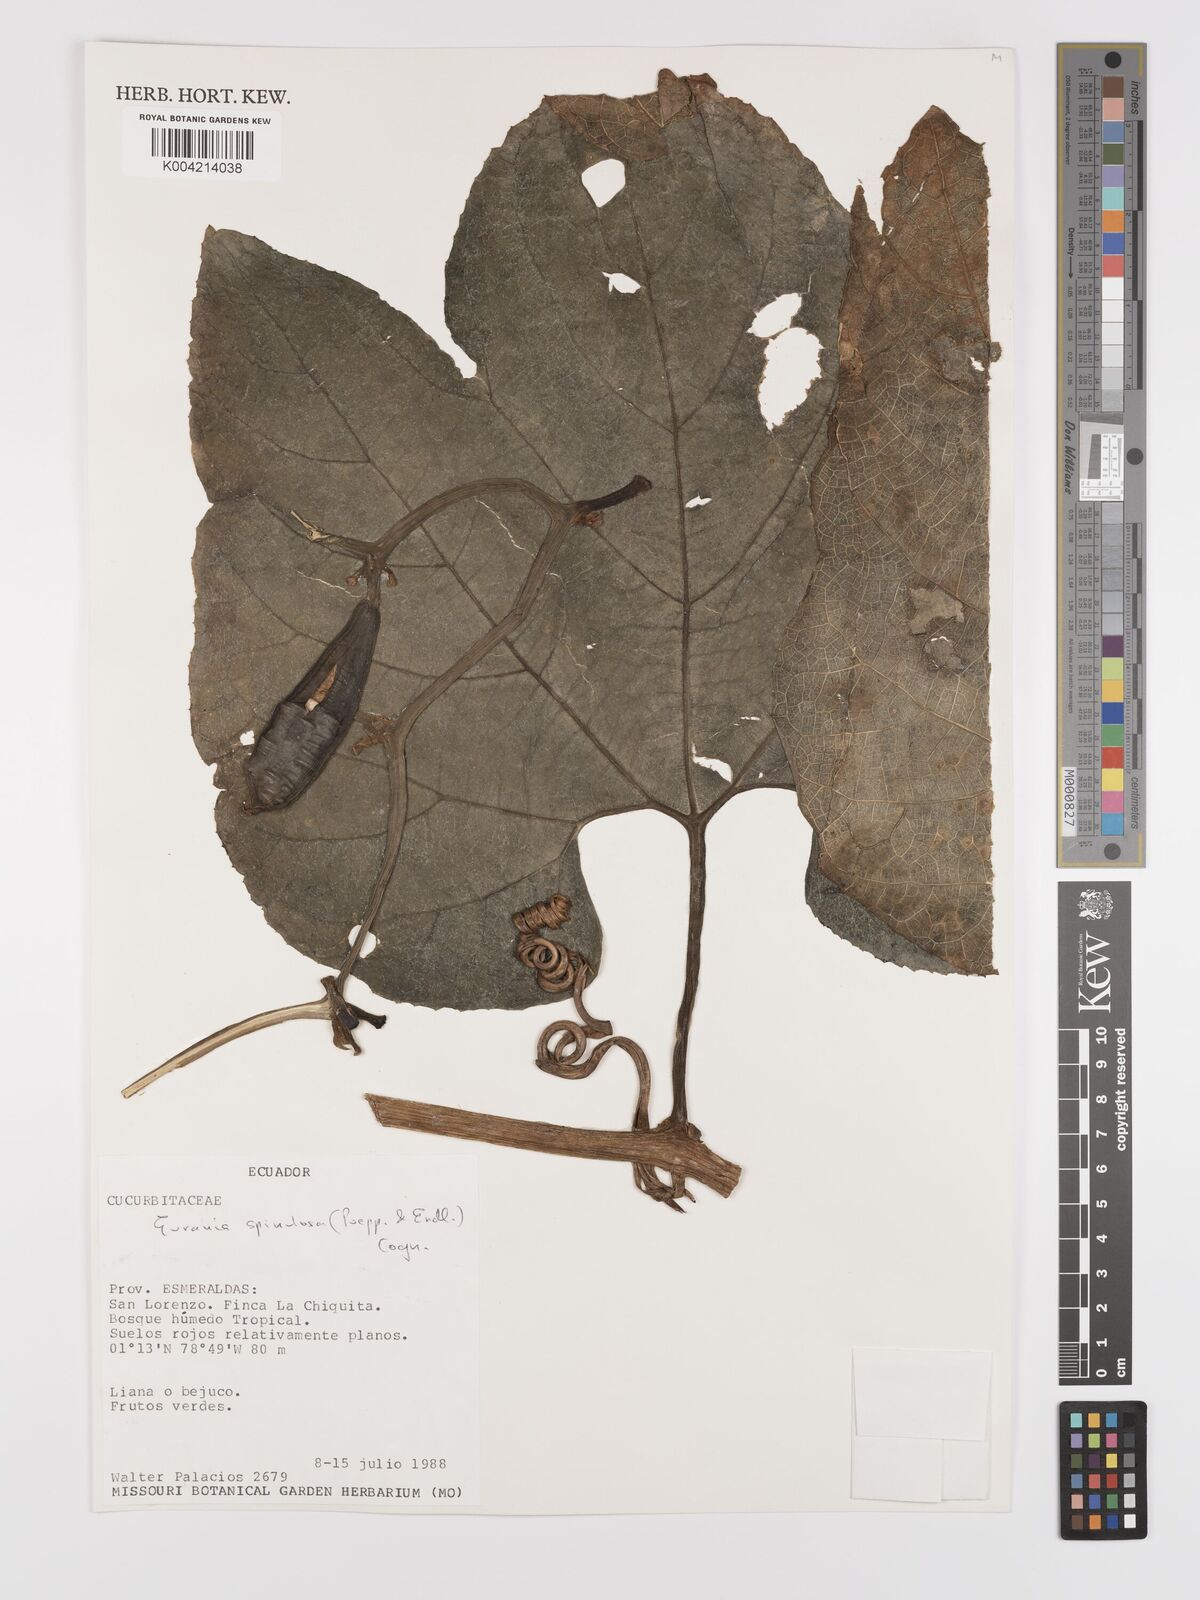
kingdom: Plantae
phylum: Tracheophyta
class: Magnoliopsida
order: Cucurbitales
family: Cucurbitaceae
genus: Gurania
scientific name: Gurania lobata
